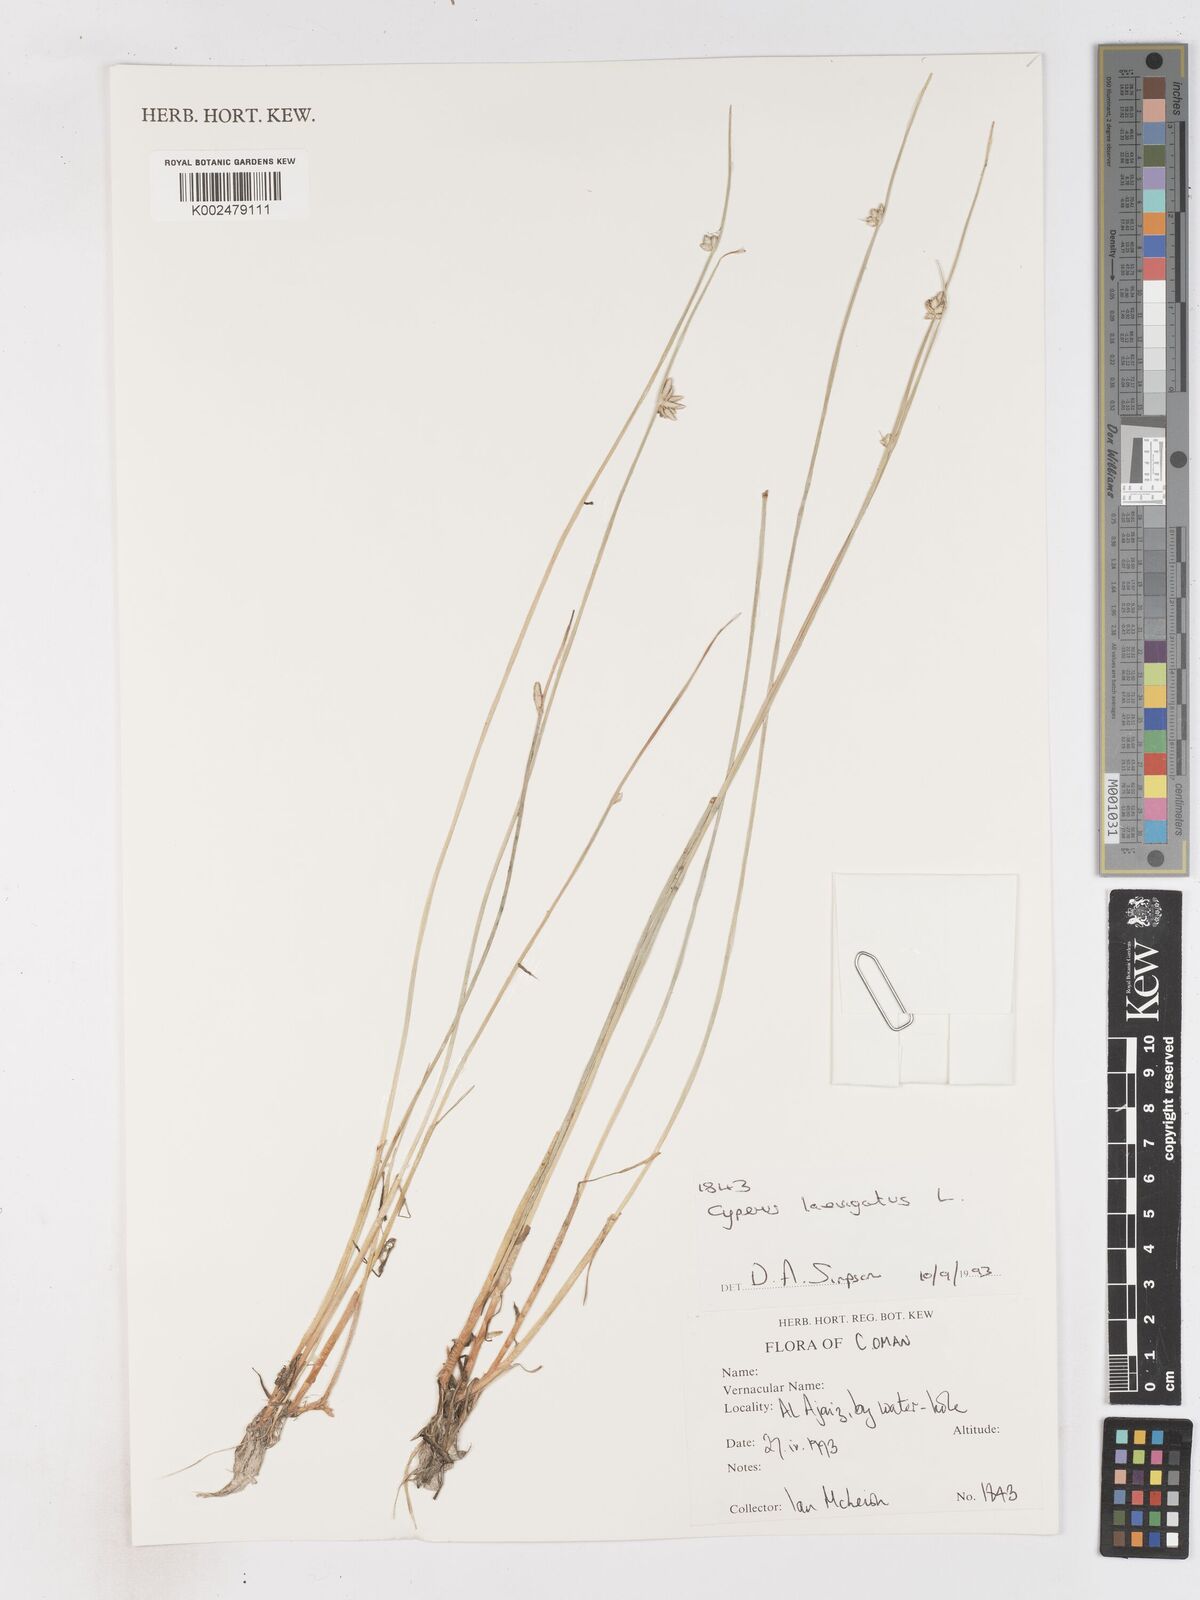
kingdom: Plantae
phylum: Tracheophyta
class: Liliopsida
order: Poales
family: Cyperaceae
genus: Cyperus
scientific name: Cyperus laevigatus
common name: Smooth flat sedge
